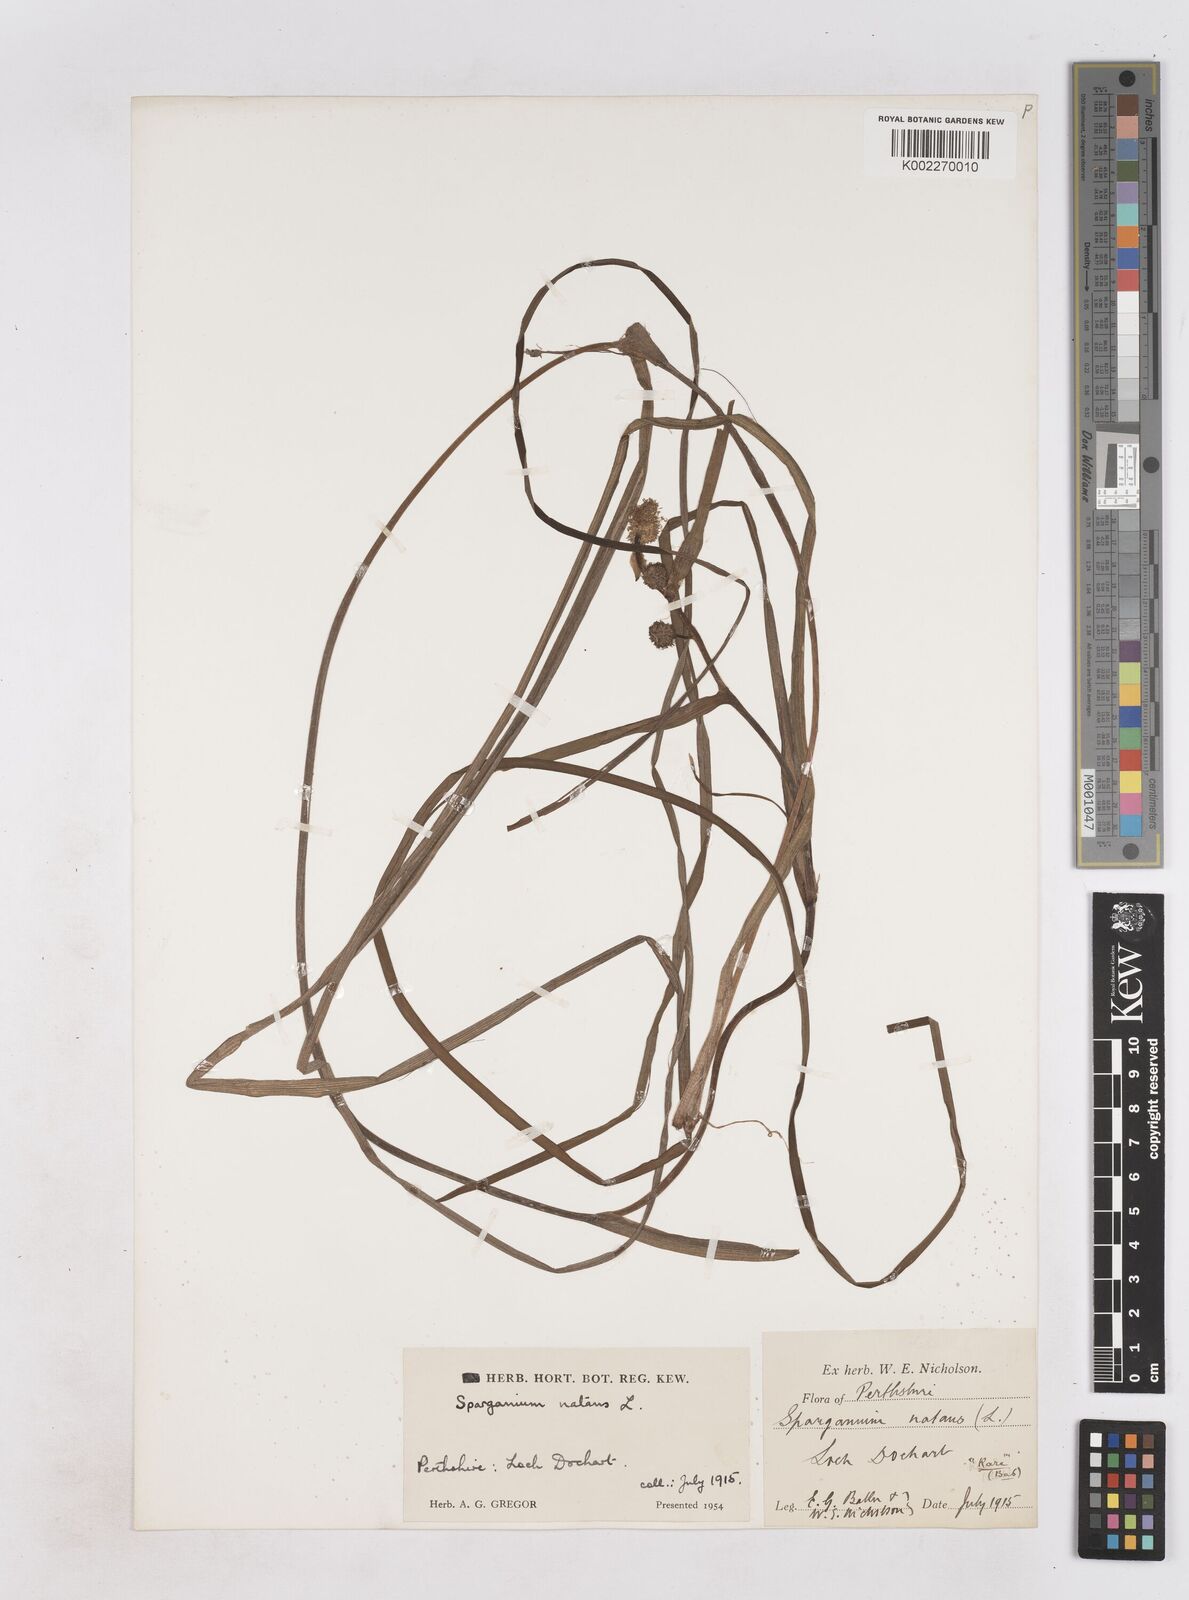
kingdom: Plantae
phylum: Tracheophyta
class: Liliopsida
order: Poales
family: Typhaceae
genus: Sparganium
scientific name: Sparganium gramineum
